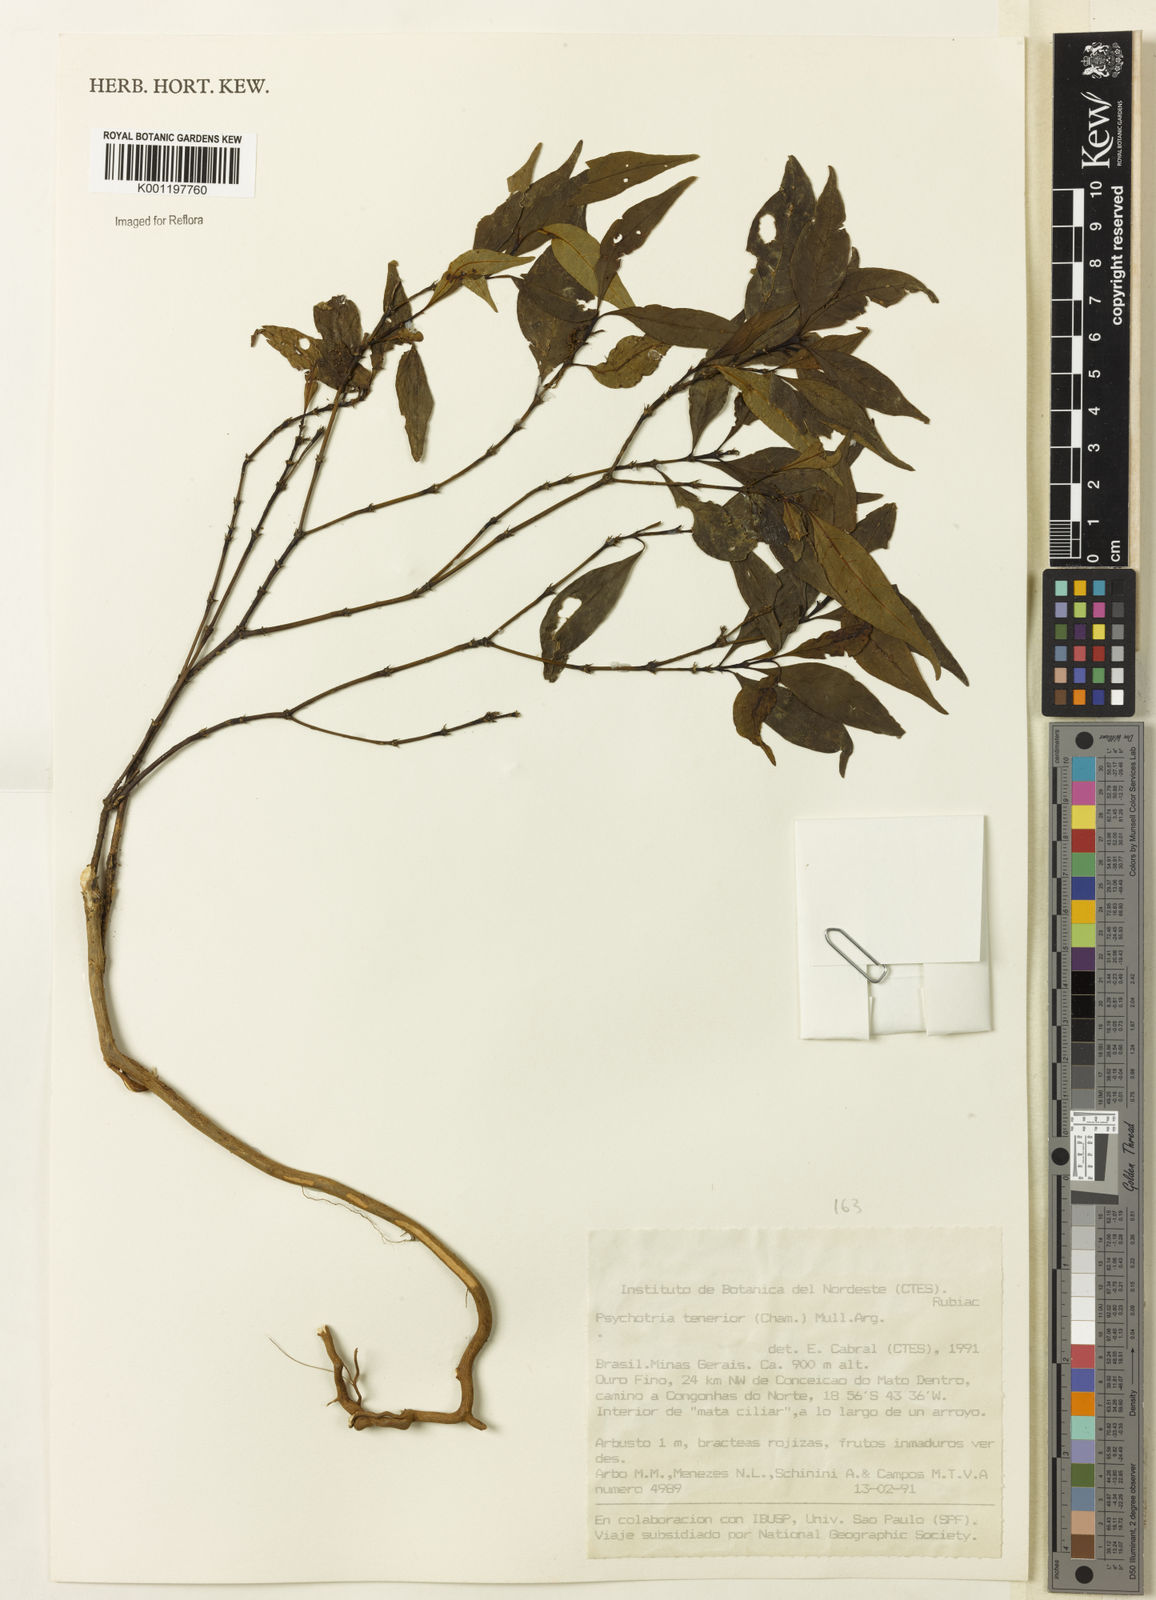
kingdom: Plantae
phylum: Tracheophyta
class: Magnoliopsida
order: Gentianales
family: Rubiaceae
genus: Psychotria
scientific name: Psychotria
